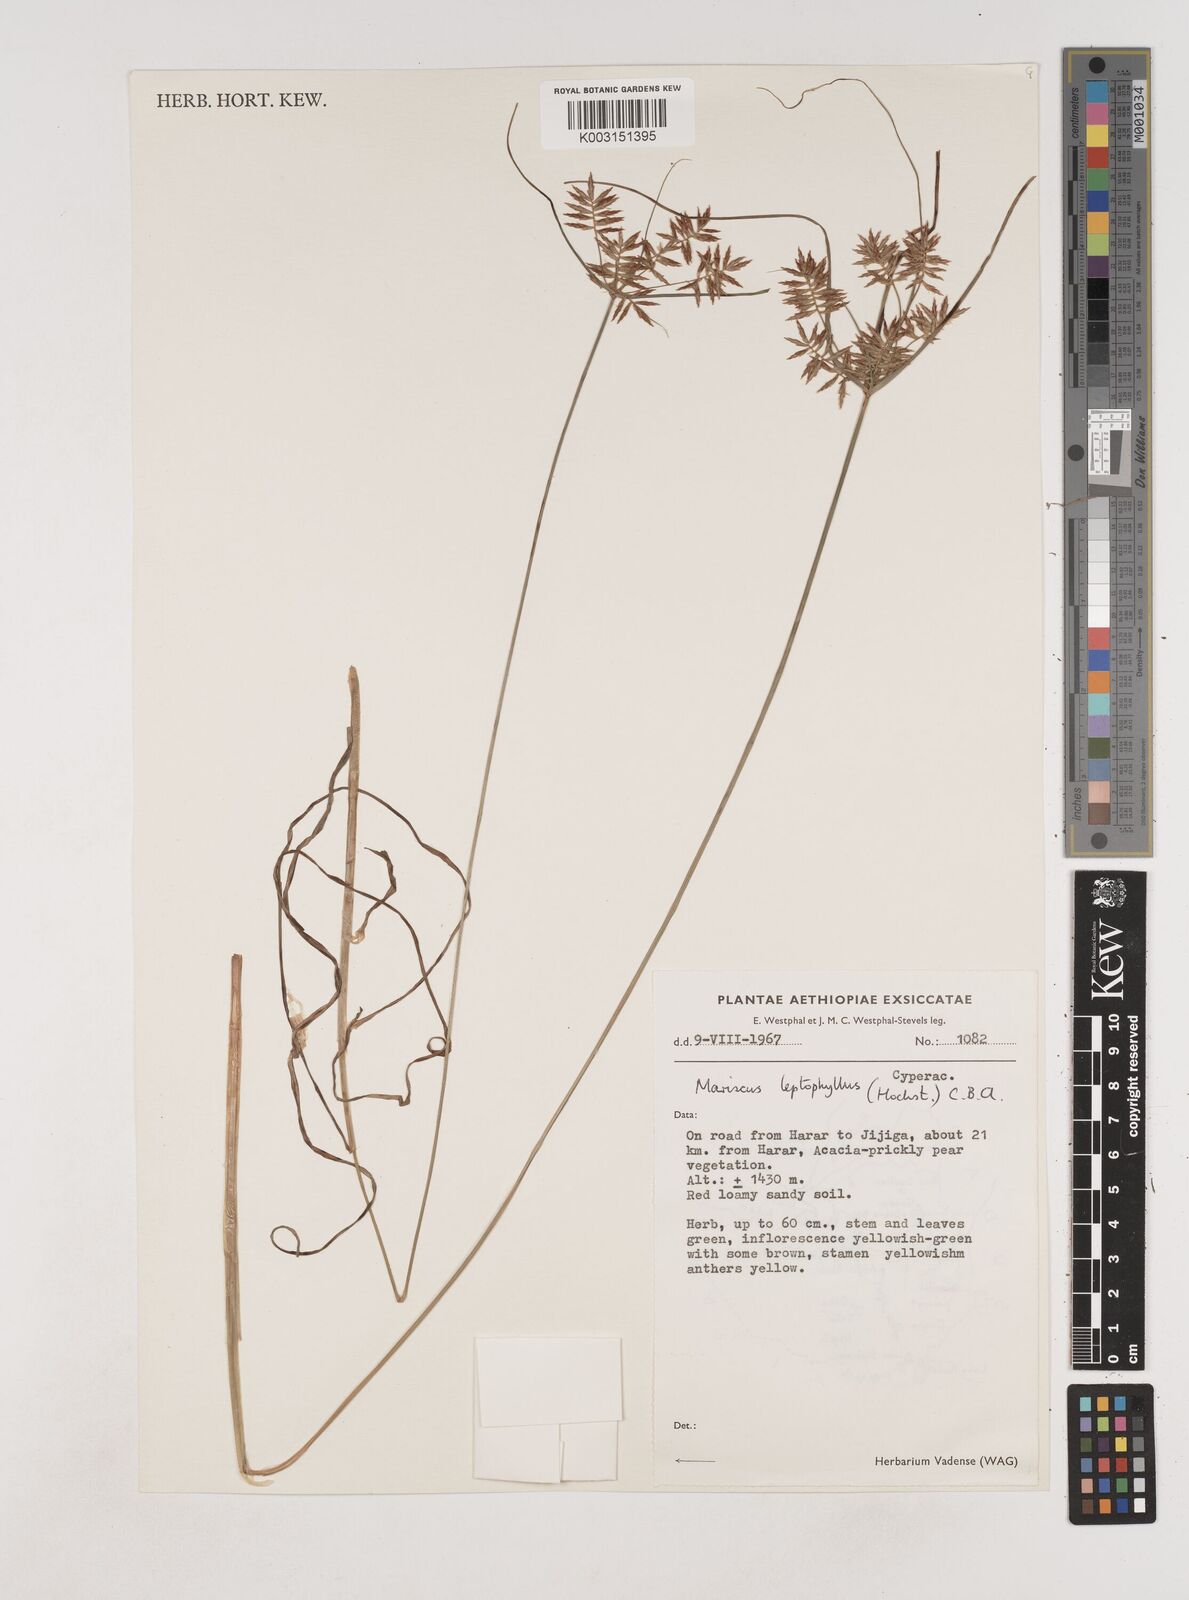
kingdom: Plantae
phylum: Tracheophyta
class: Liliopsida
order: Poales
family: Cyperaceae
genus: Cyperus
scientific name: Cyperus amauropus
